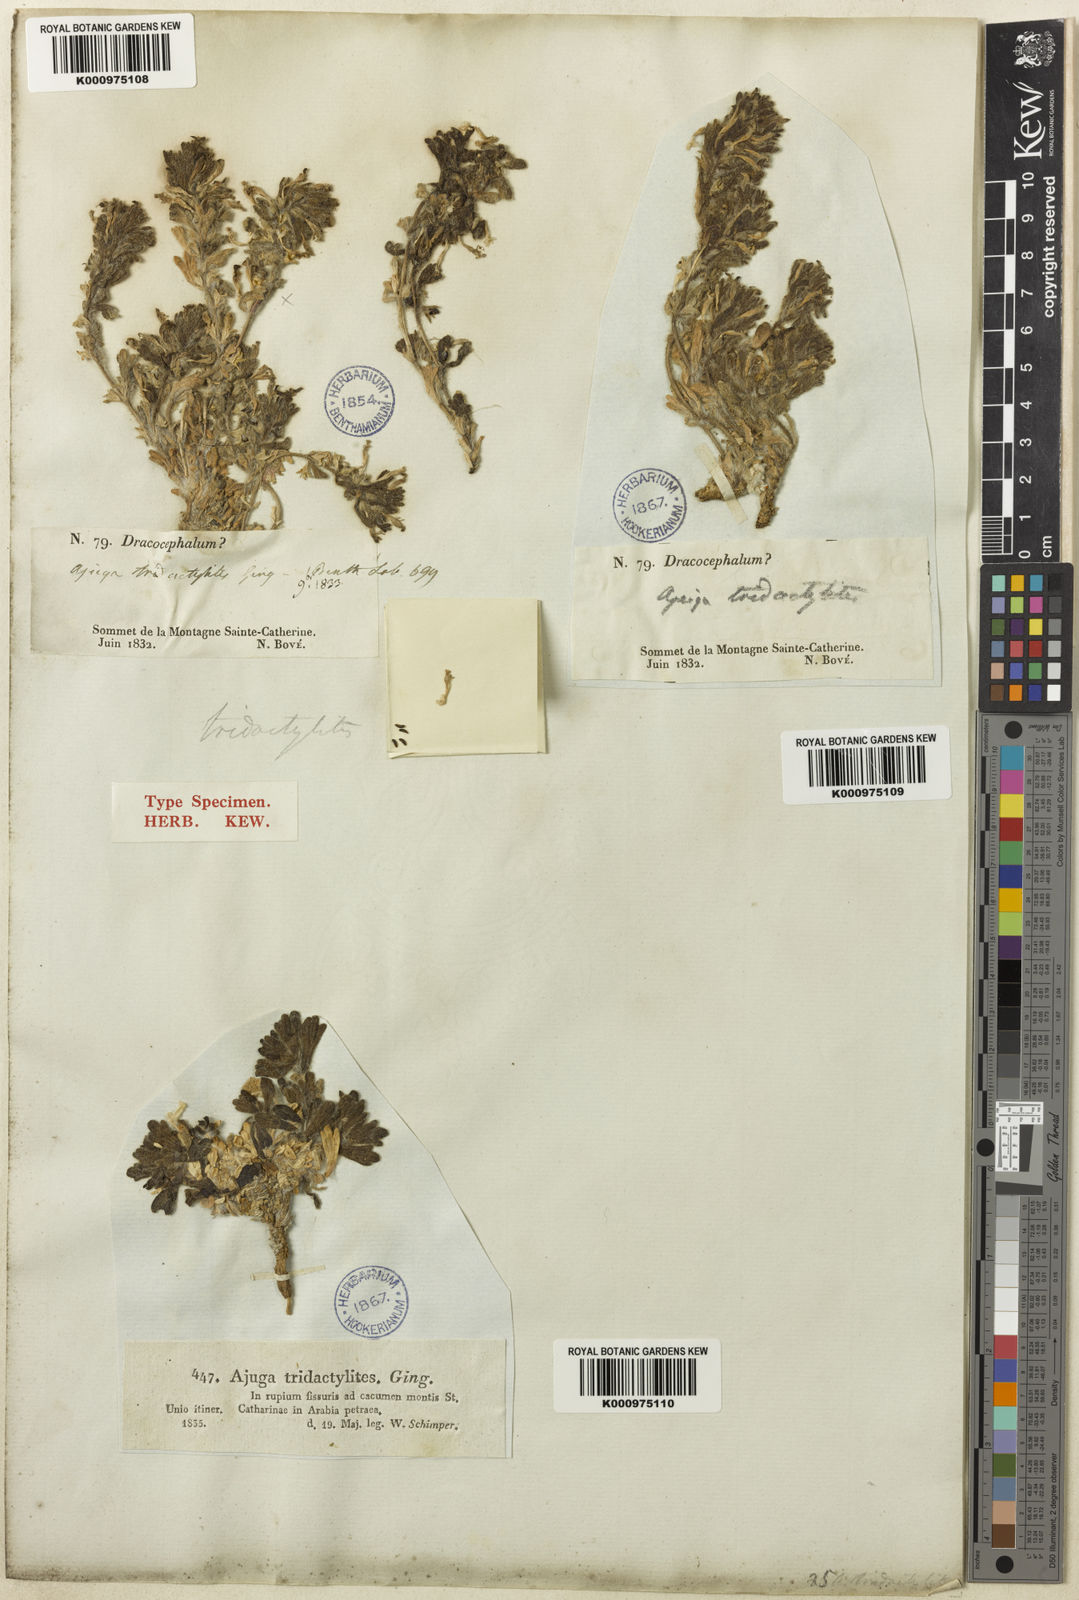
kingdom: Plantae
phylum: Tracheophyta
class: Magnoliopsida
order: Lamiales
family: Lamiaceae
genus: Ajuga
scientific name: Ajuga chamaepitys
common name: Ground-pine
